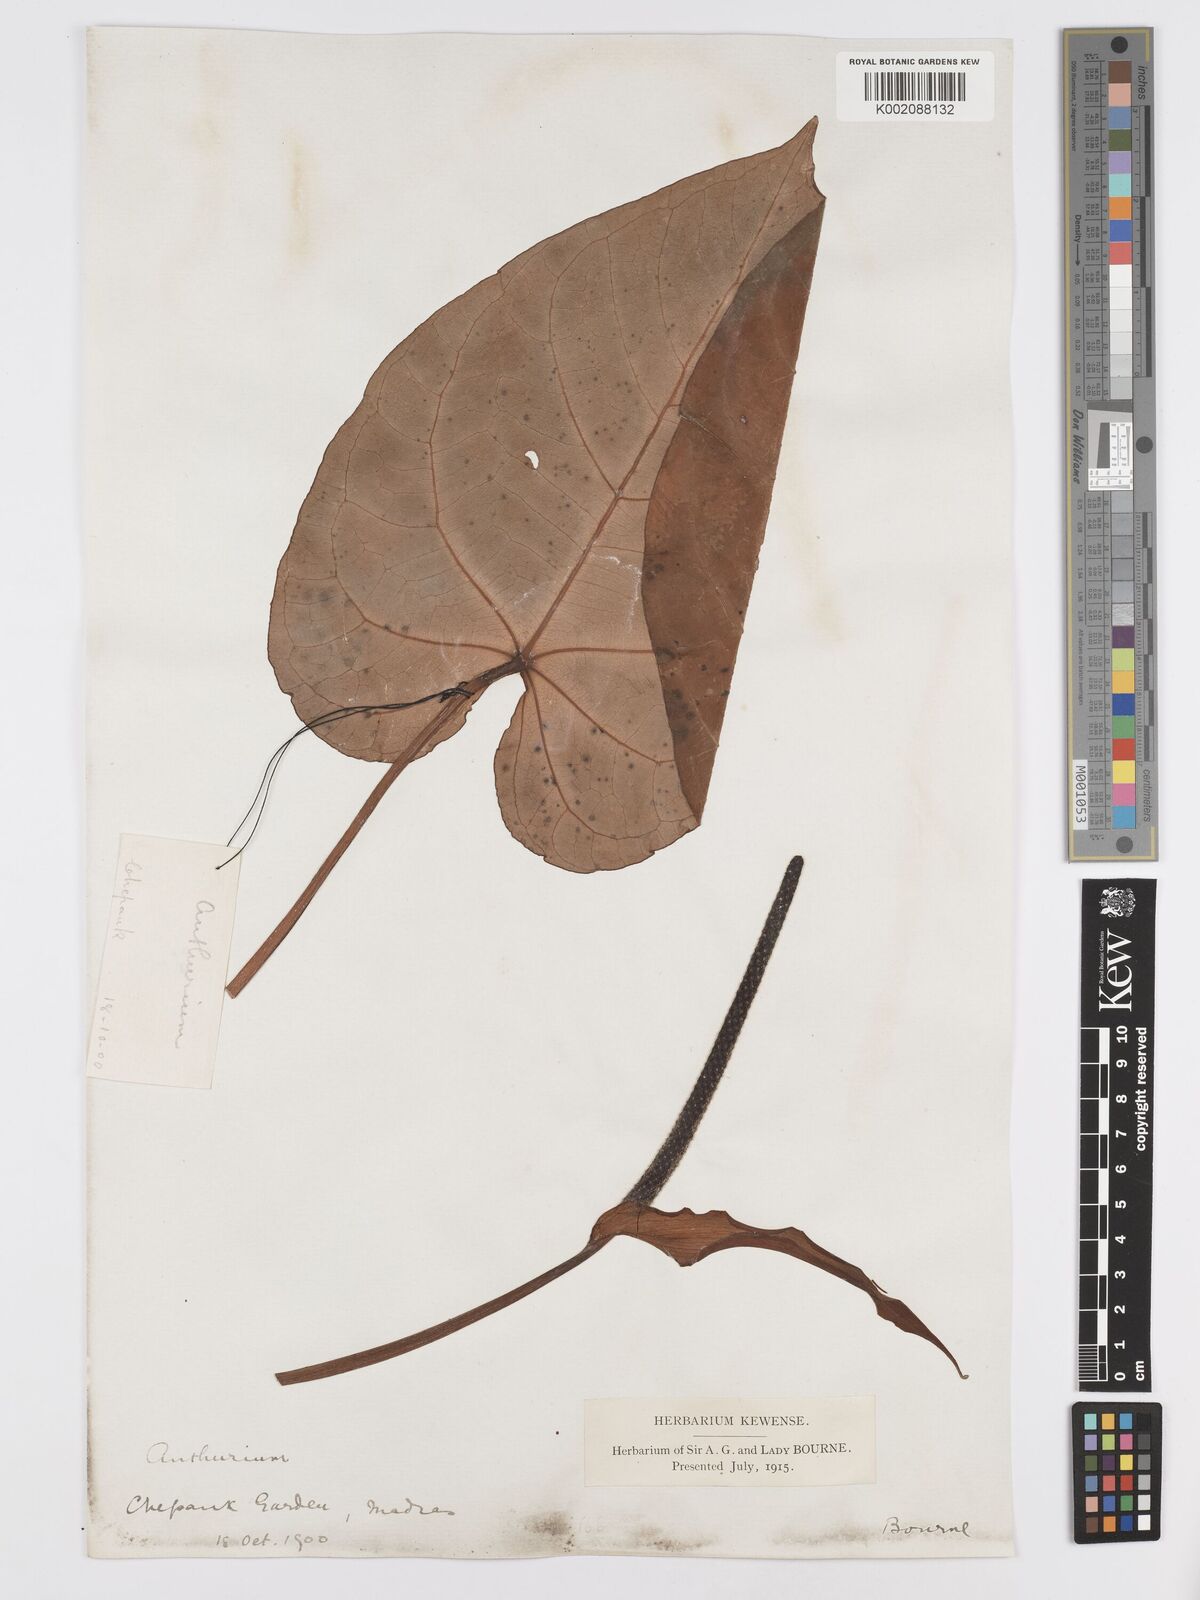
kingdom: Plantae
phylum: Tracheophyta
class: Liliopsida
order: Alismatales
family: Araceae
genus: Anthurium
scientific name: Anthurium
